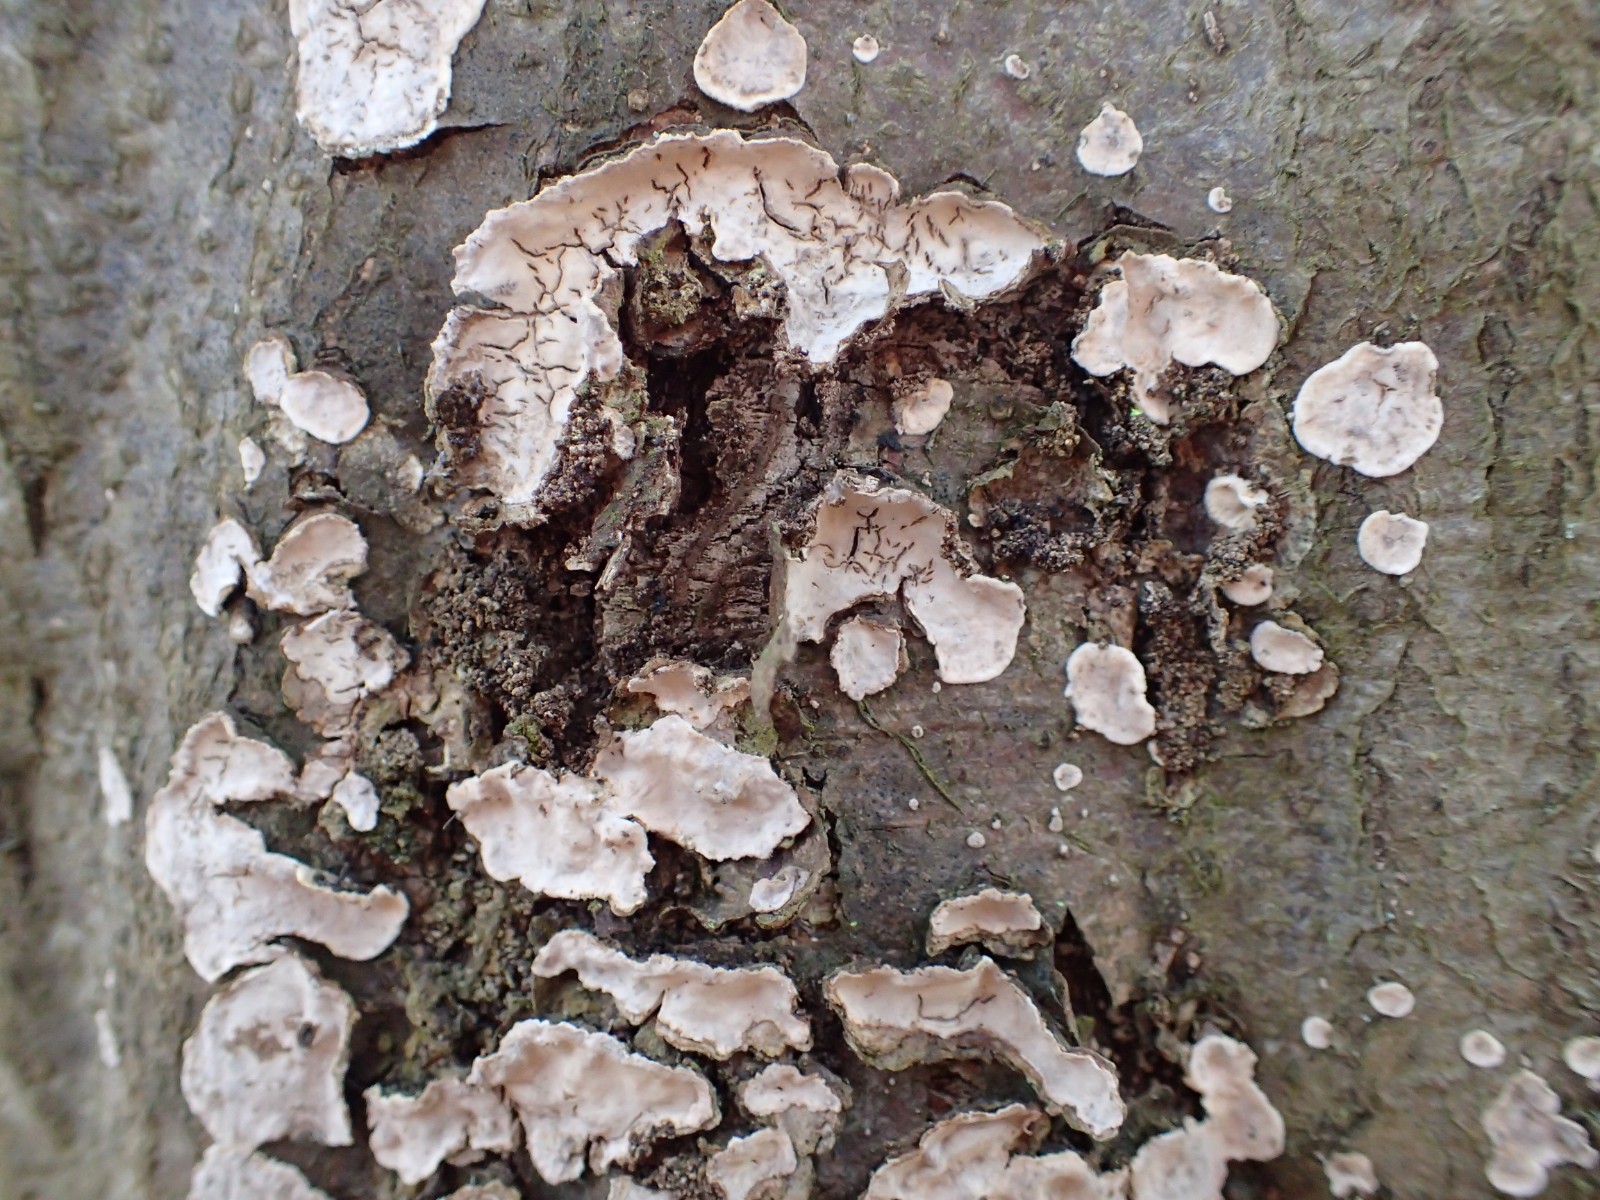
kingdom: Fungi
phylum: Basidiomycota
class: Agaricomycetes
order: Agaricales
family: Physalacriaceae
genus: Cylindrobasidium
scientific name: Cylindrobasidium evolvens
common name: sprækkehinde
